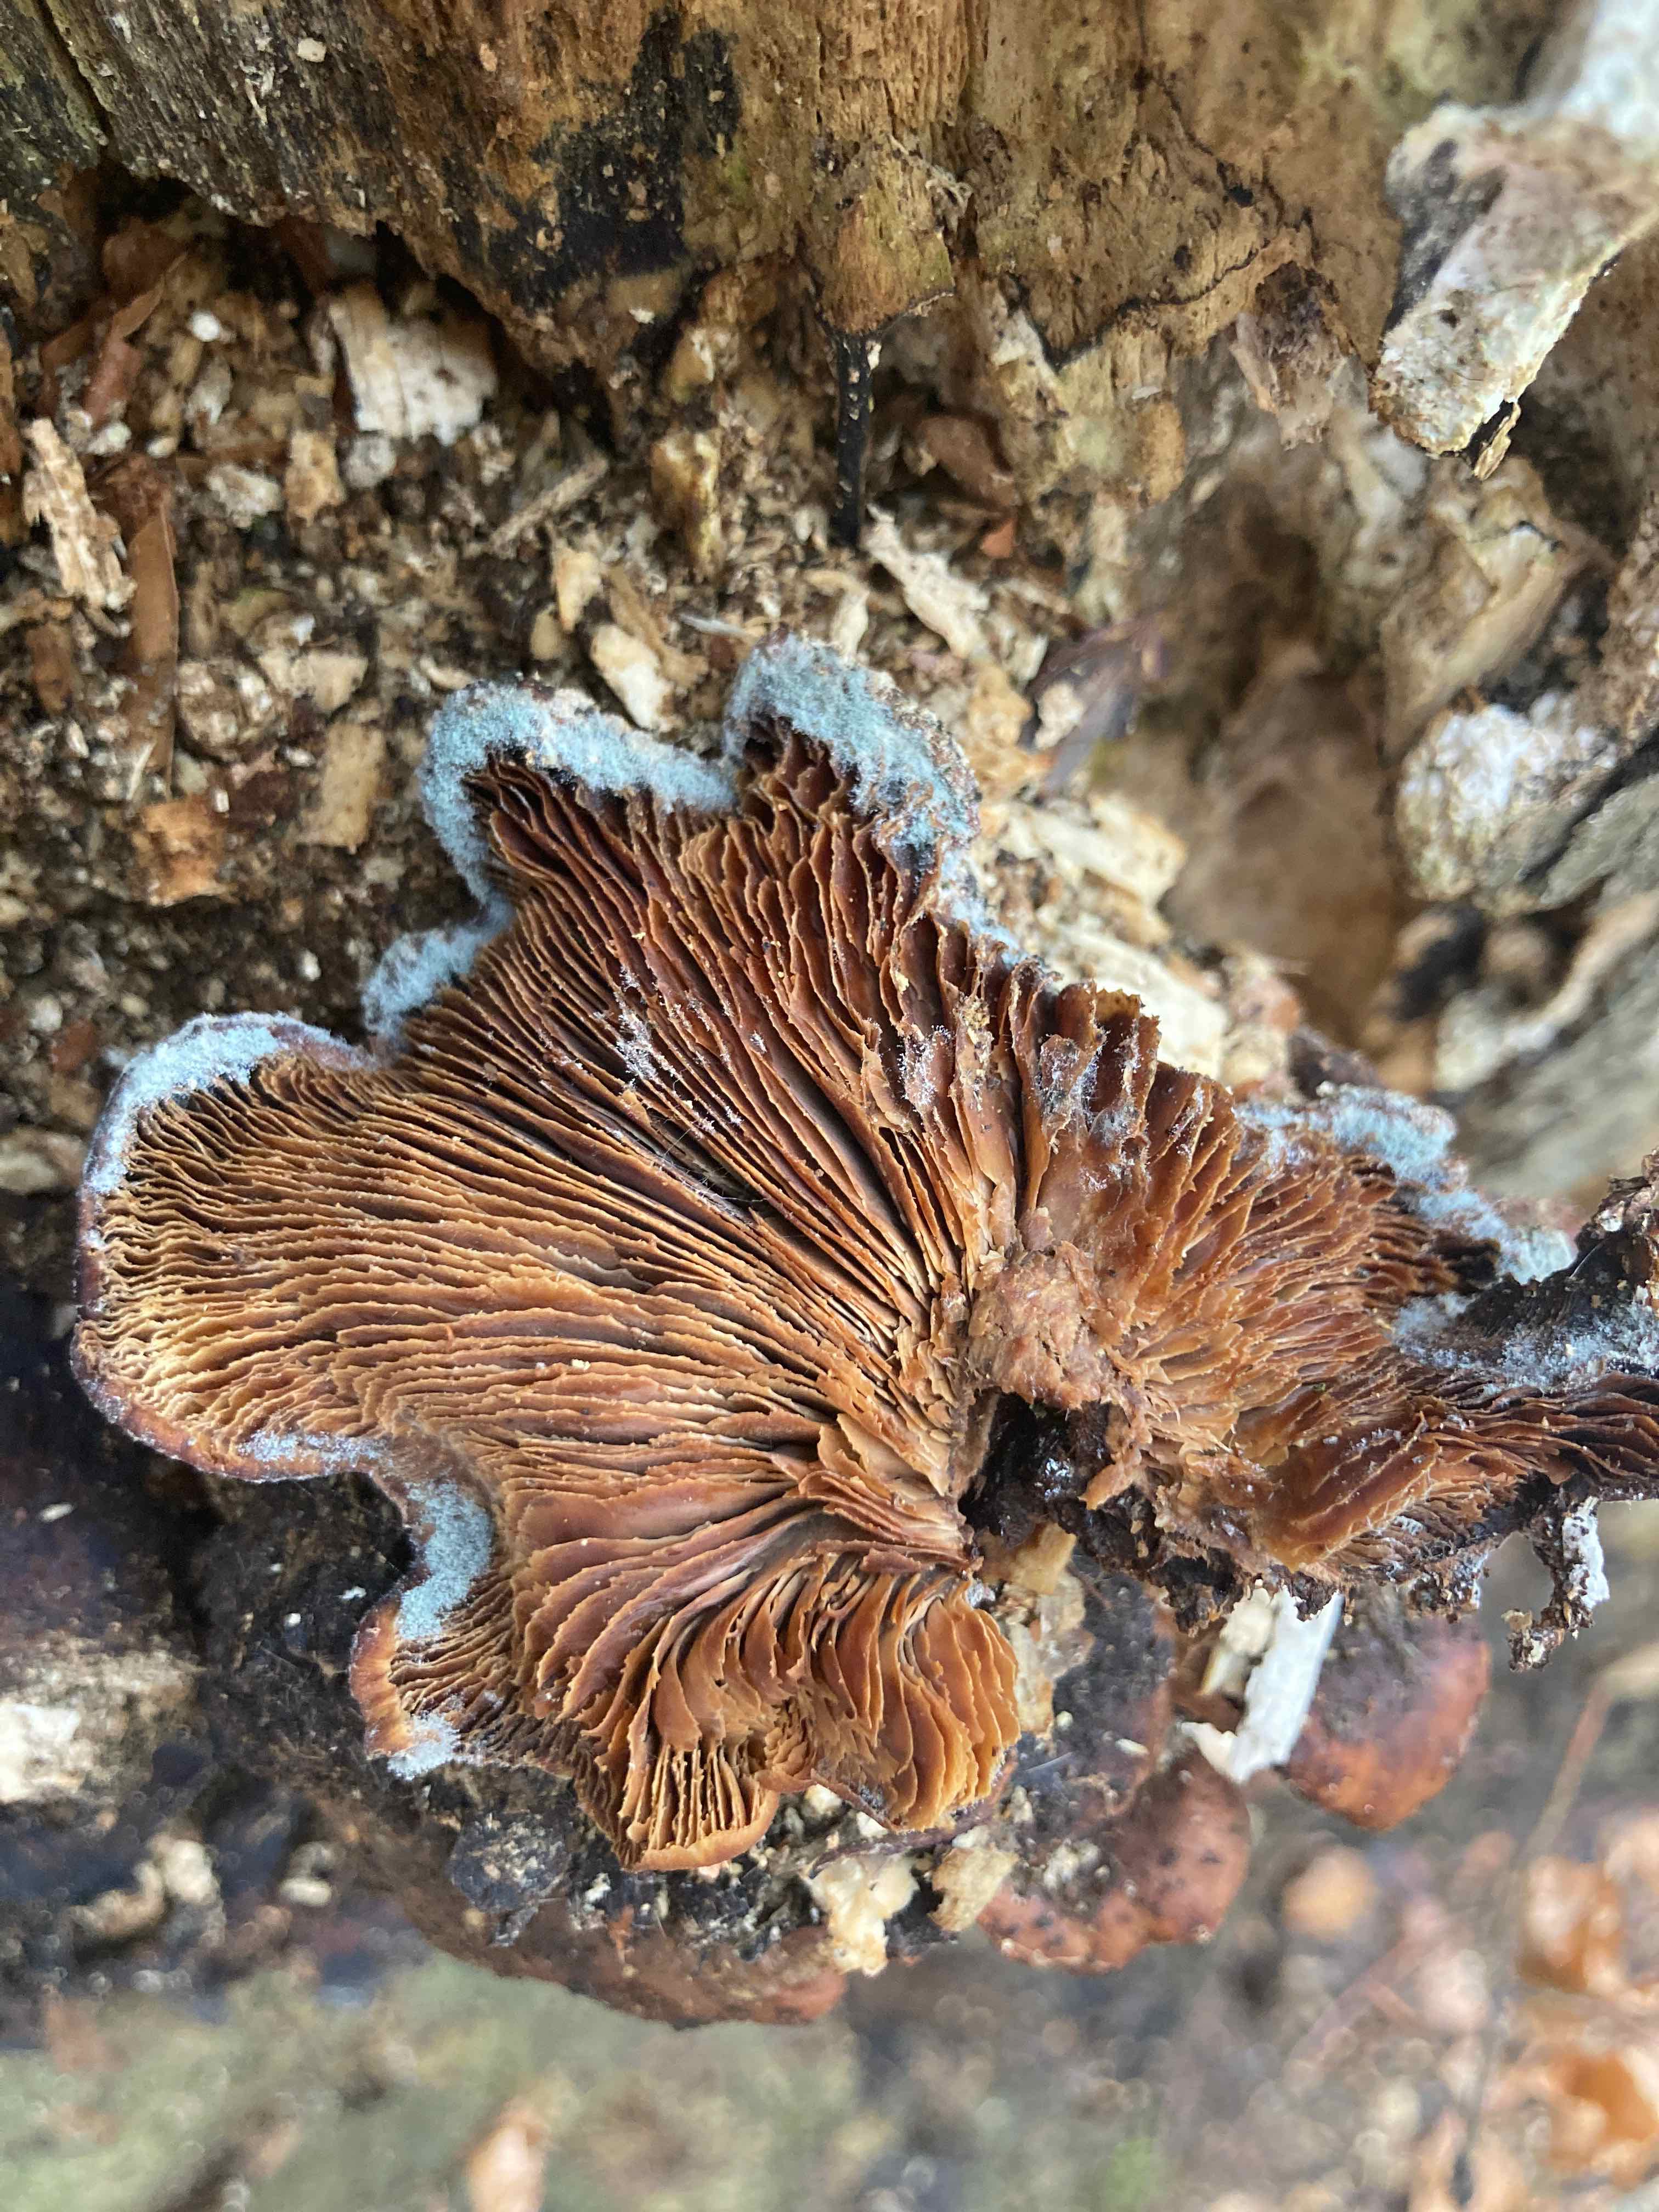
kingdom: Fungi
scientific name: Fungi
